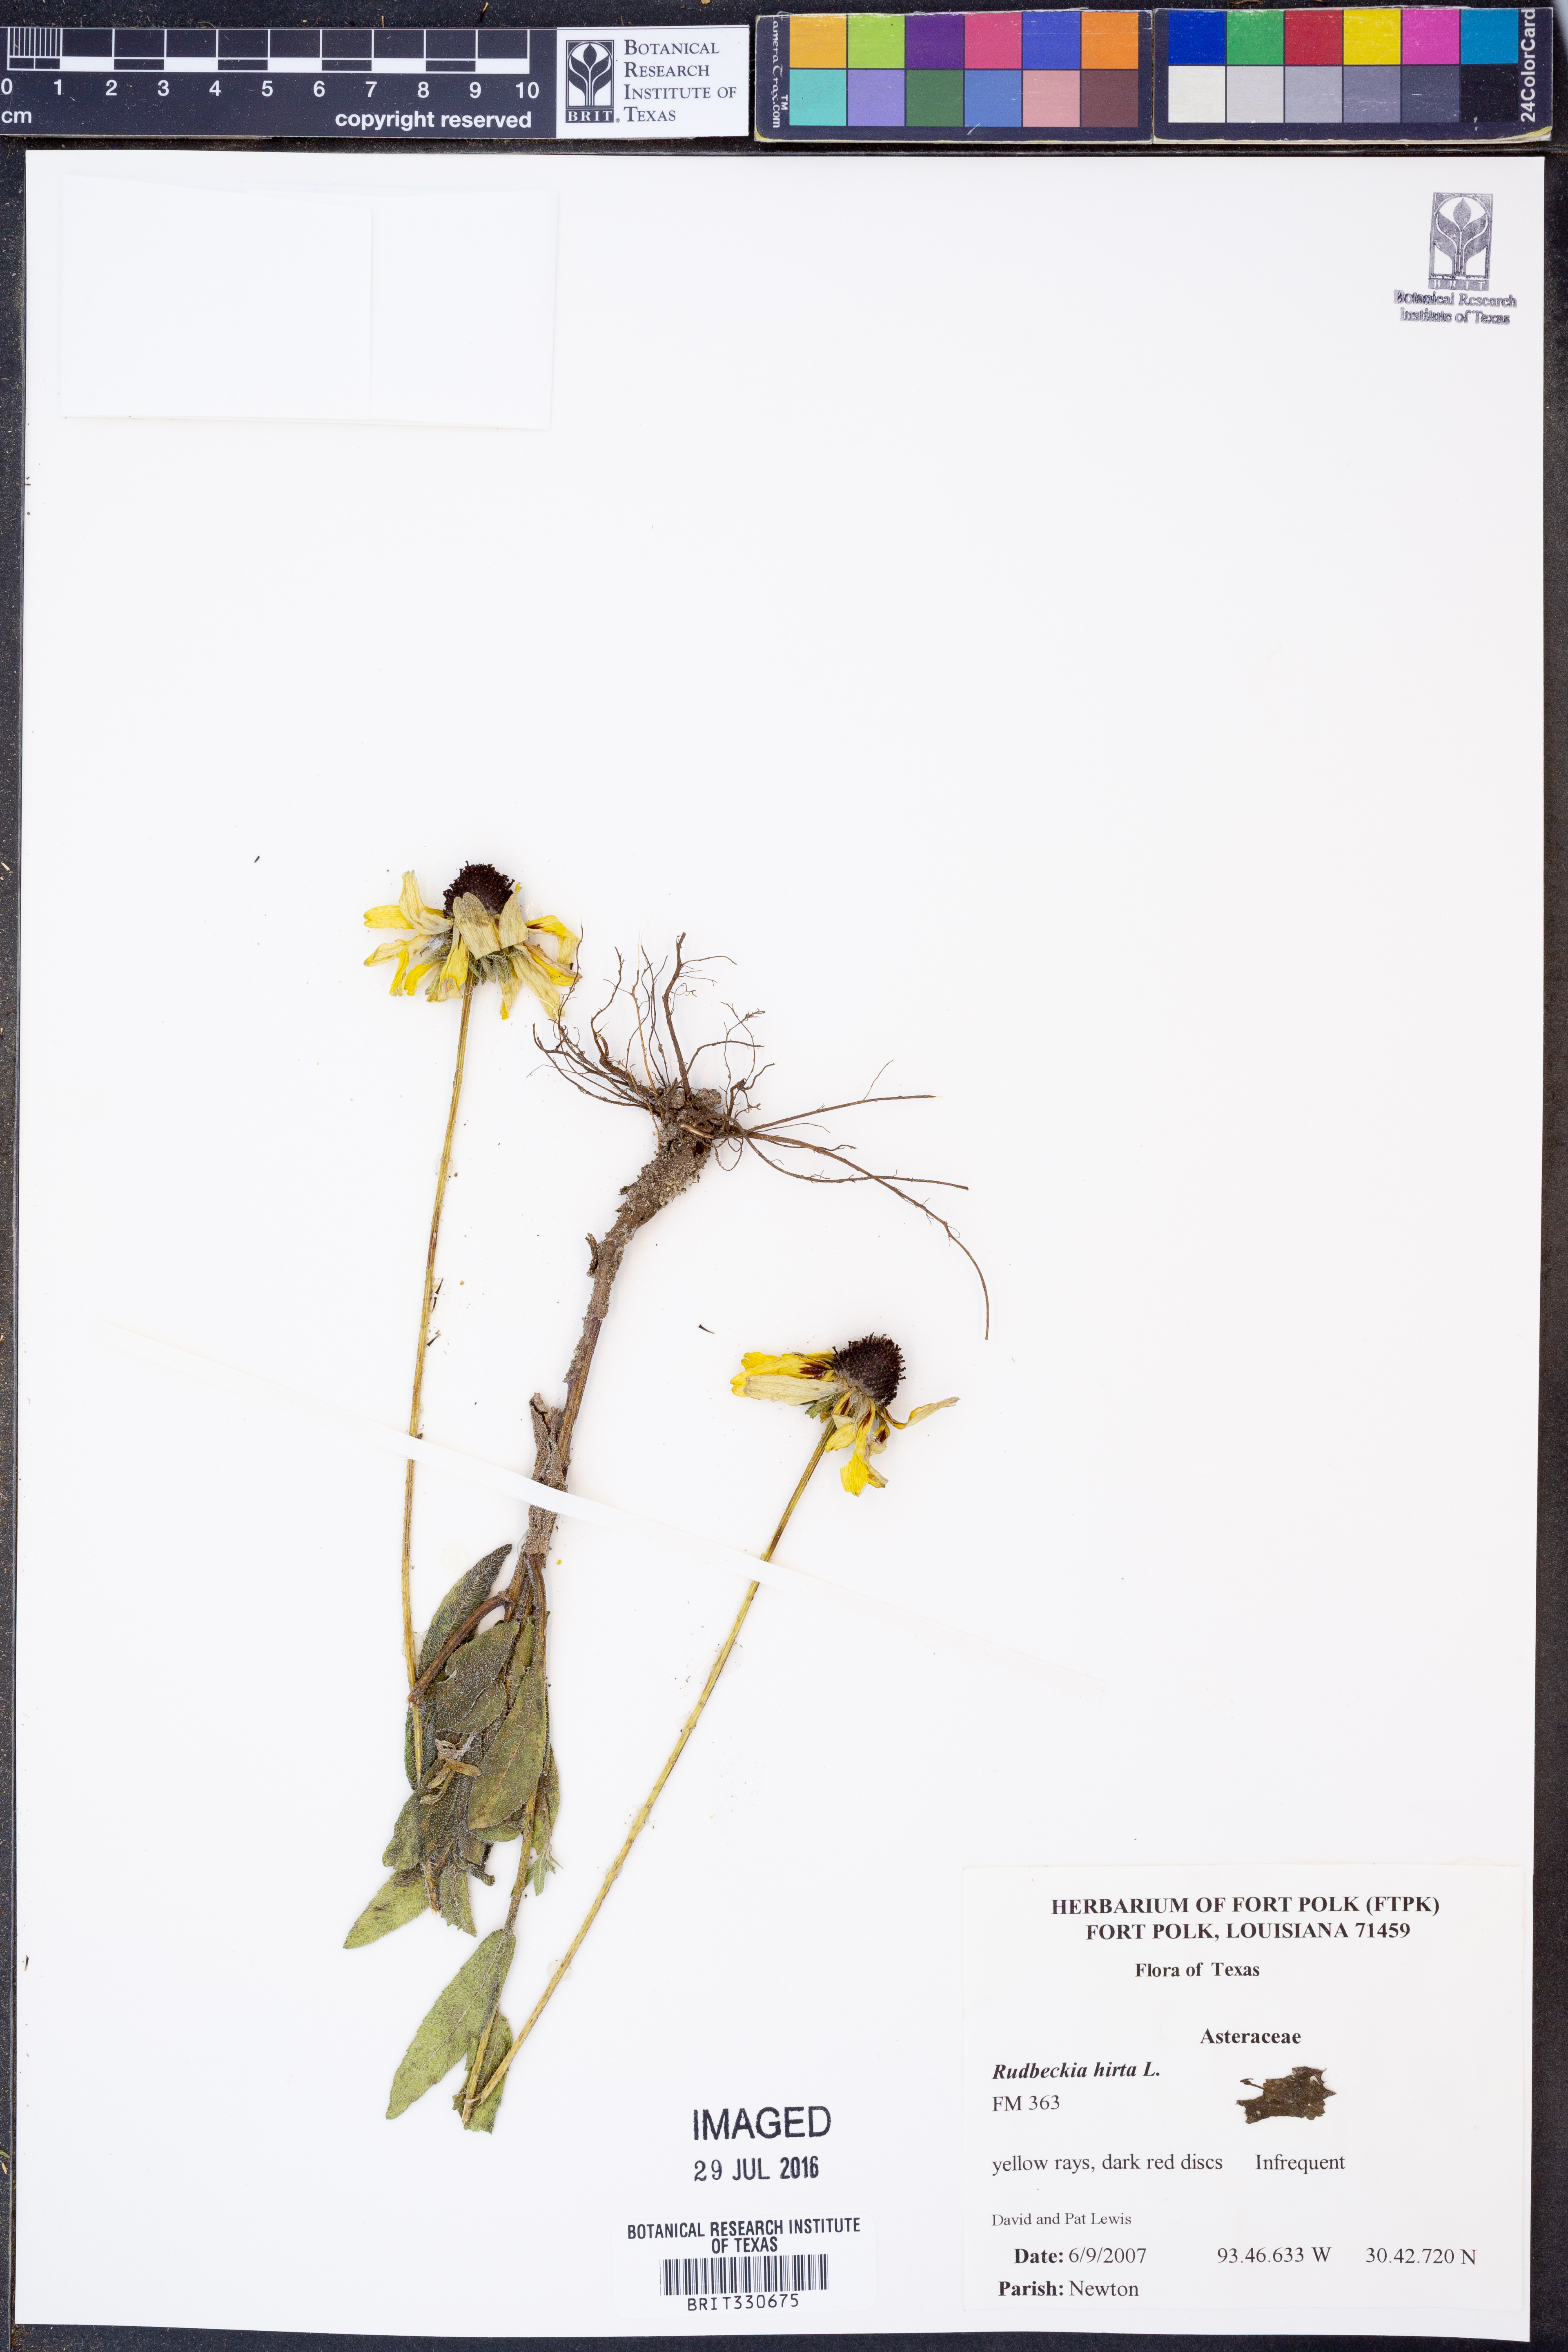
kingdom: Plantae
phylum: Tracheophyta
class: Magnoliopsida
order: Asterales
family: Asteraceae
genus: Rudbeckia
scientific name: Rudbeckia hirta
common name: Black-eyed-susan
